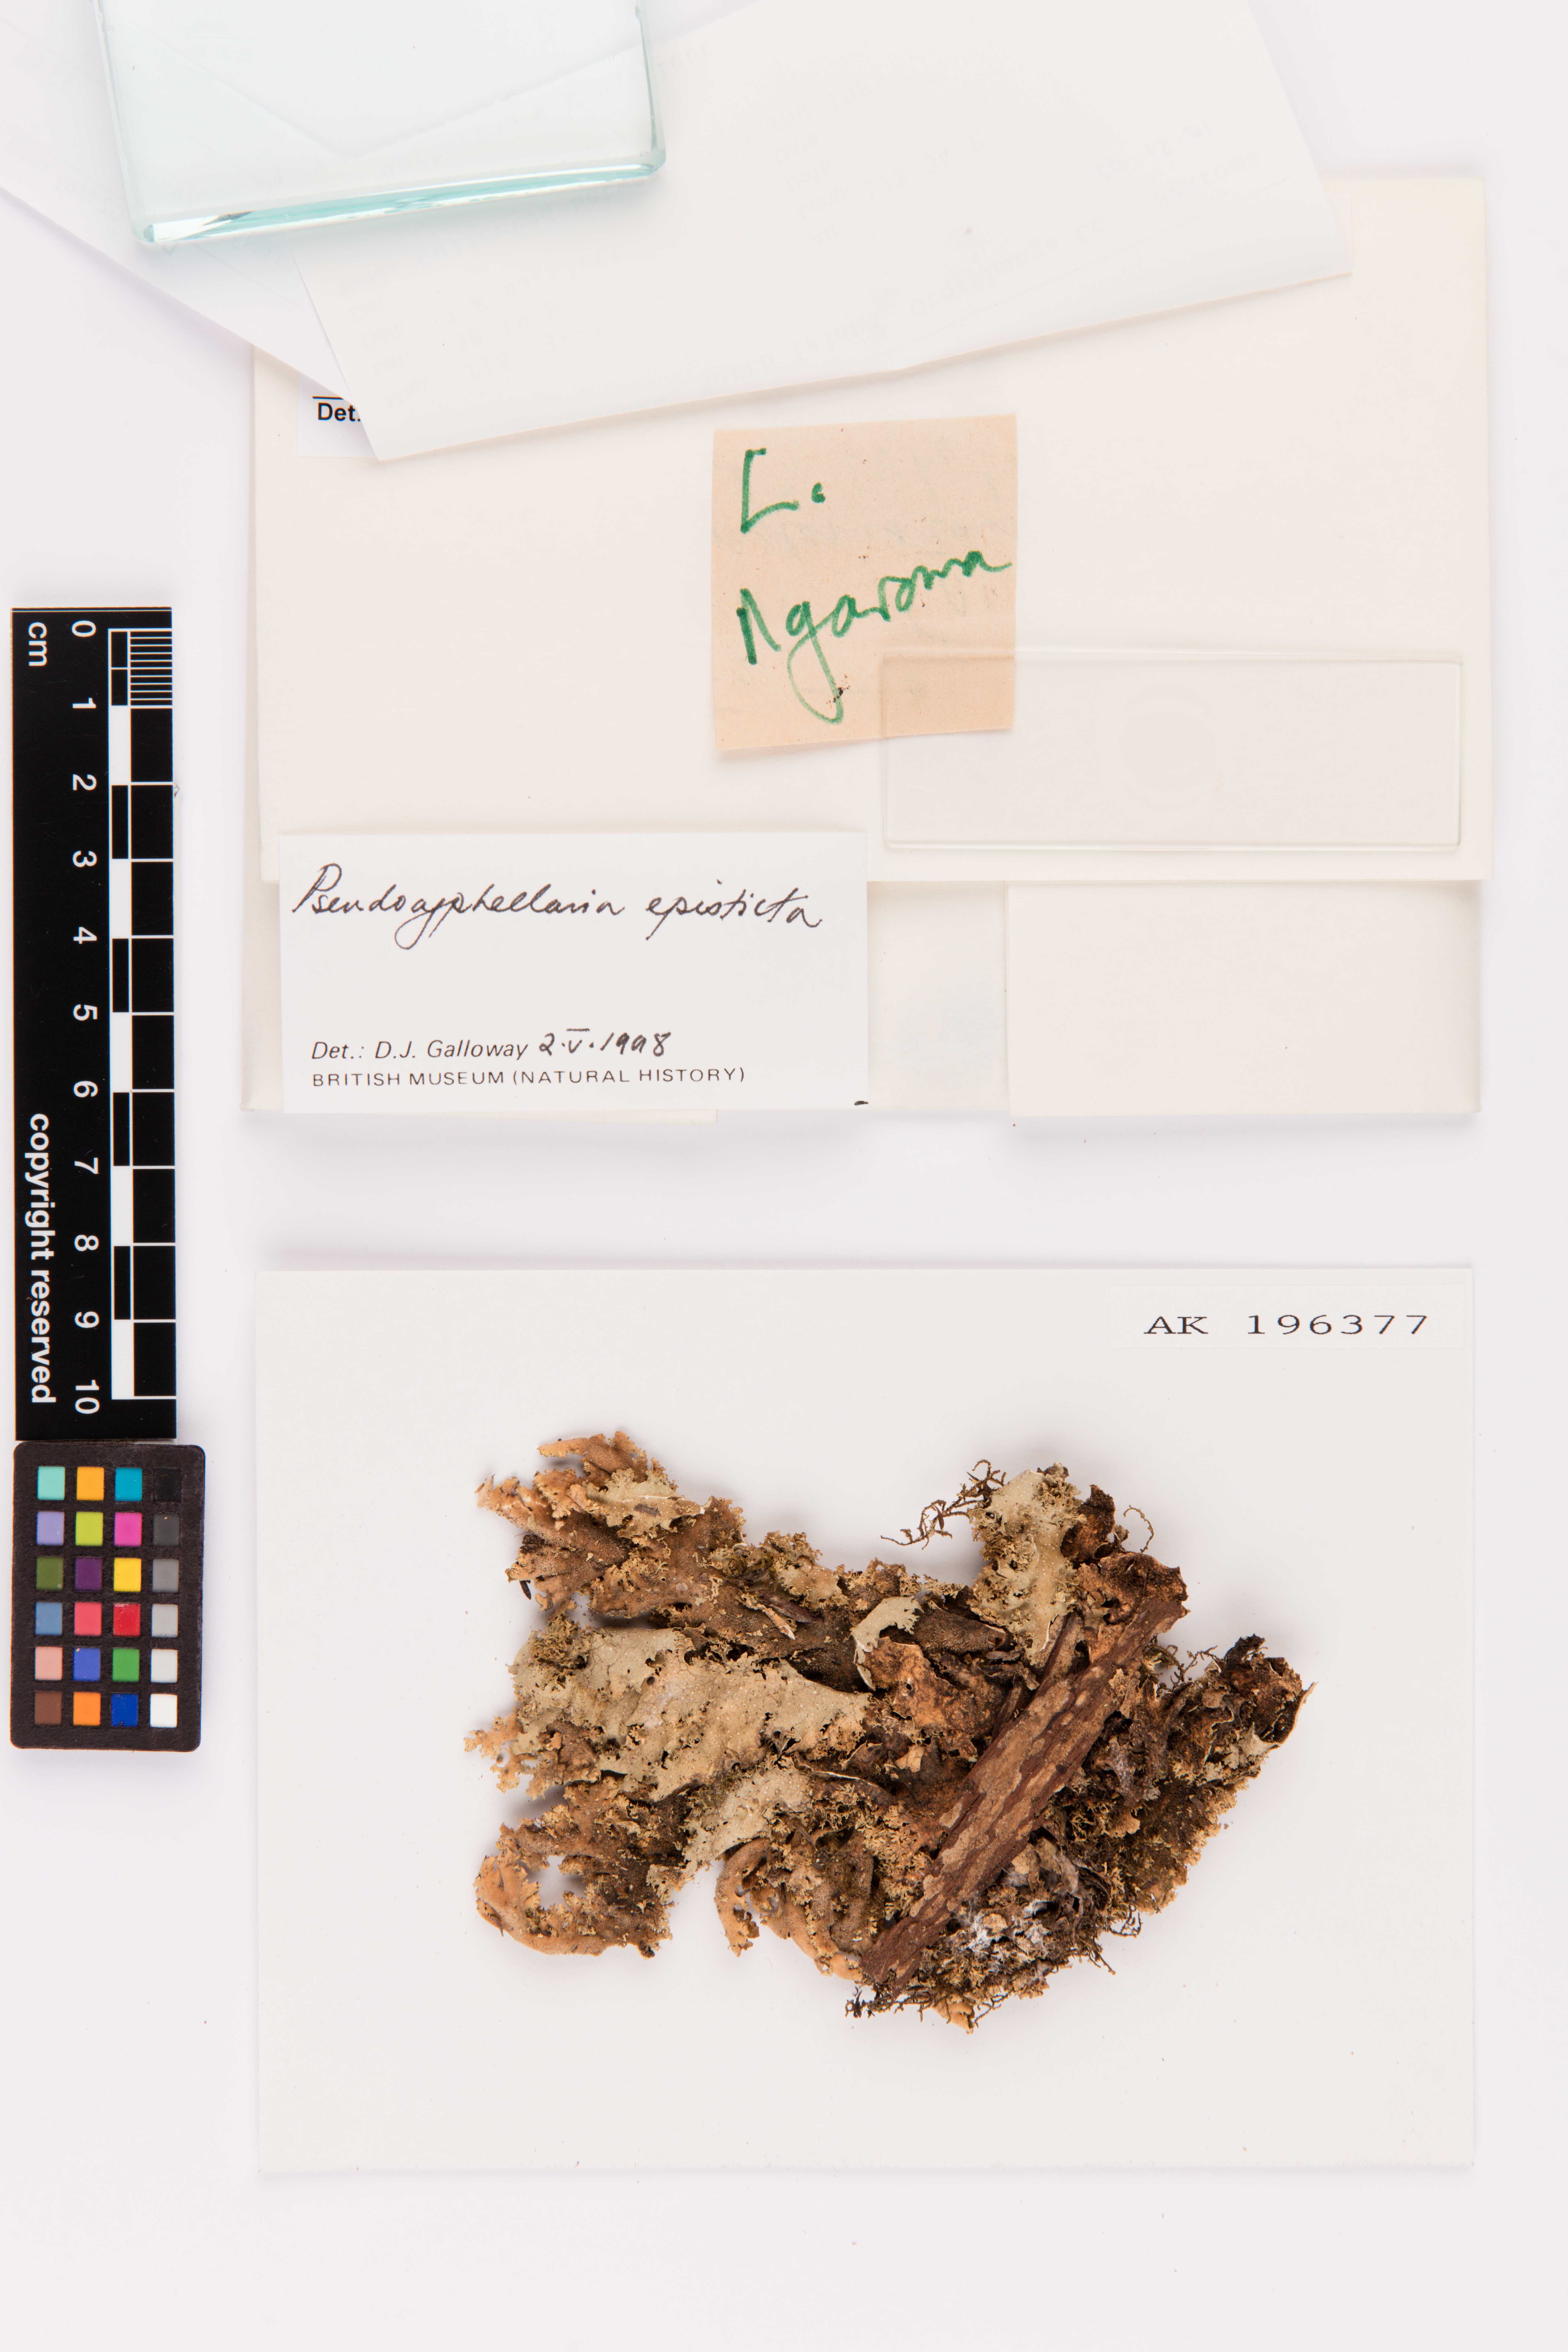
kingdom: Fungi
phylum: Ascomycota
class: Lecanoromycetes
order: Peltigerales
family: Lobariaceae
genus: Pseudocyphellaria
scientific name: Pseudocyphellaria episticta
